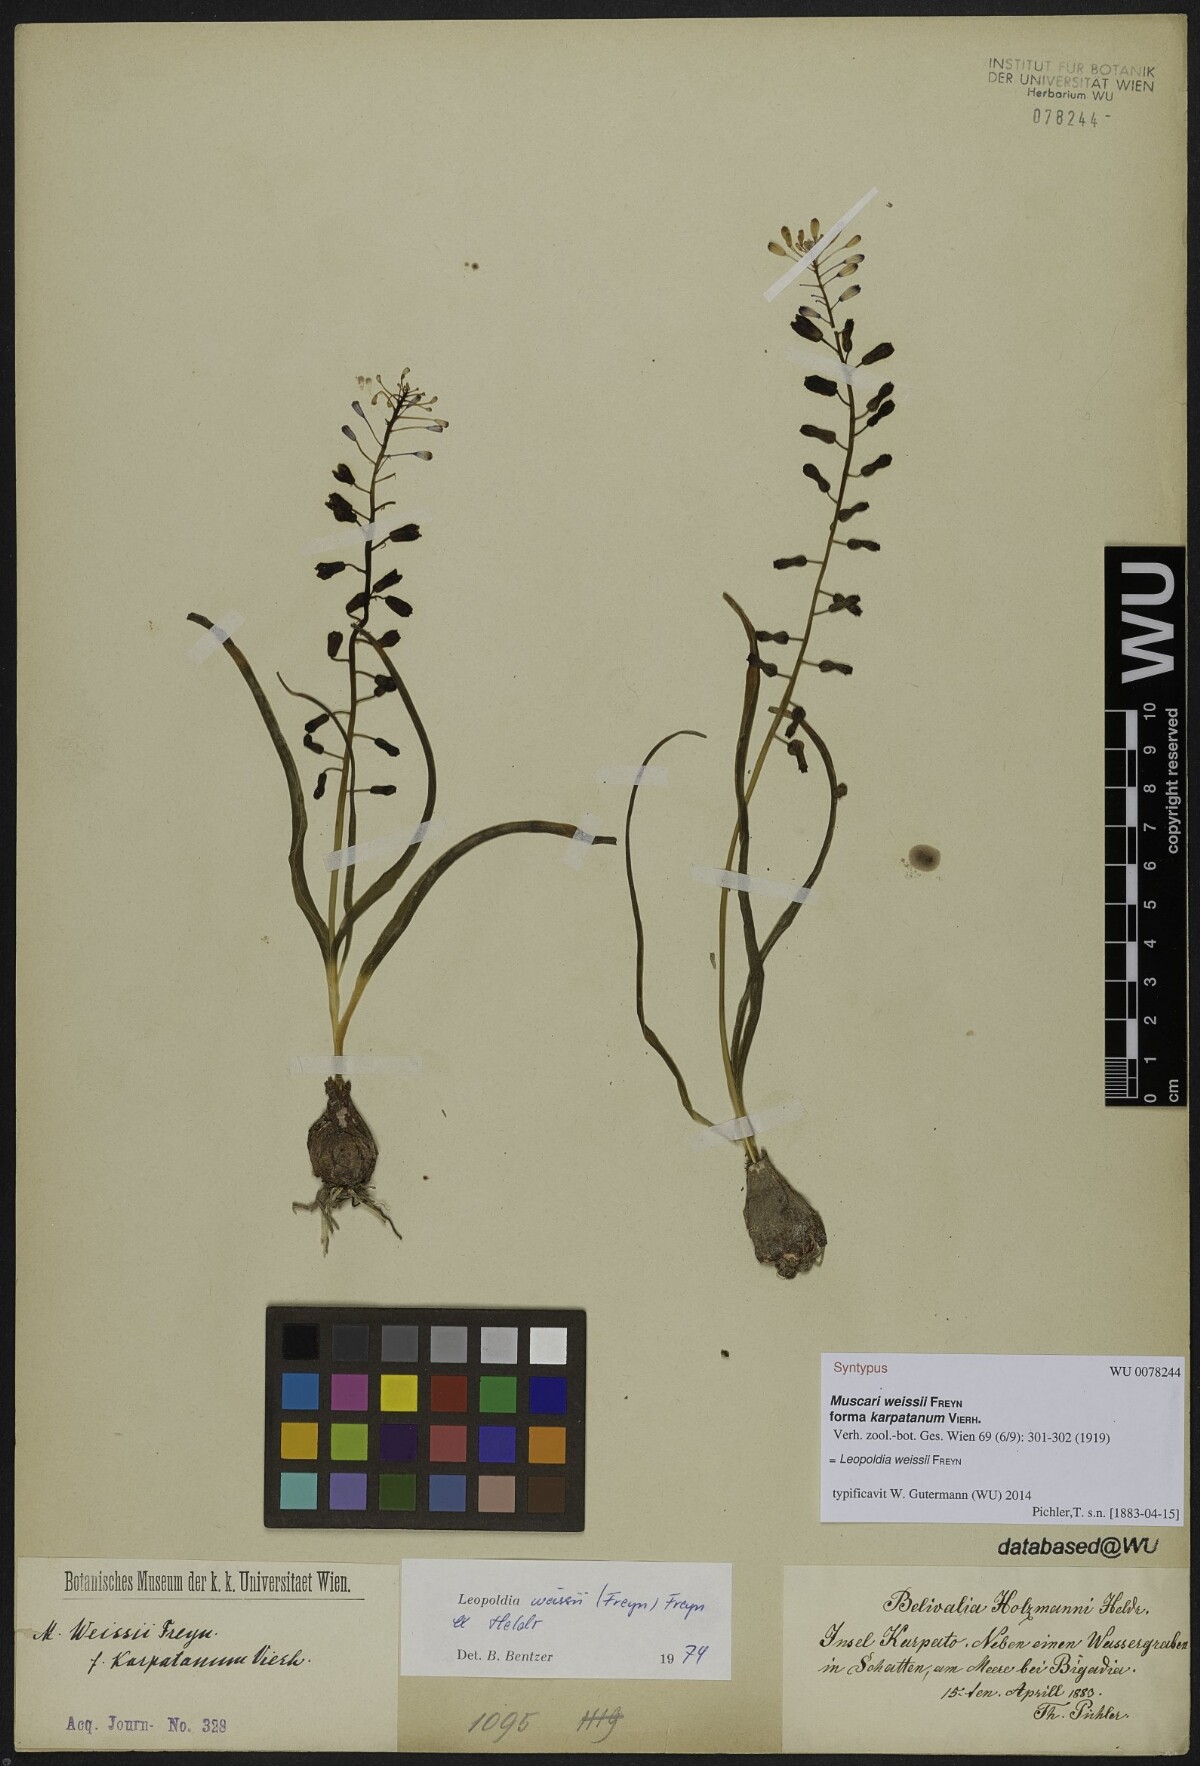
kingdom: Plantae
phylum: Tracheophyta
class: Liliopsida
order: Asparagales
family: Asparagaceae
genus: Muscari
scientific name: Muscari weissii
